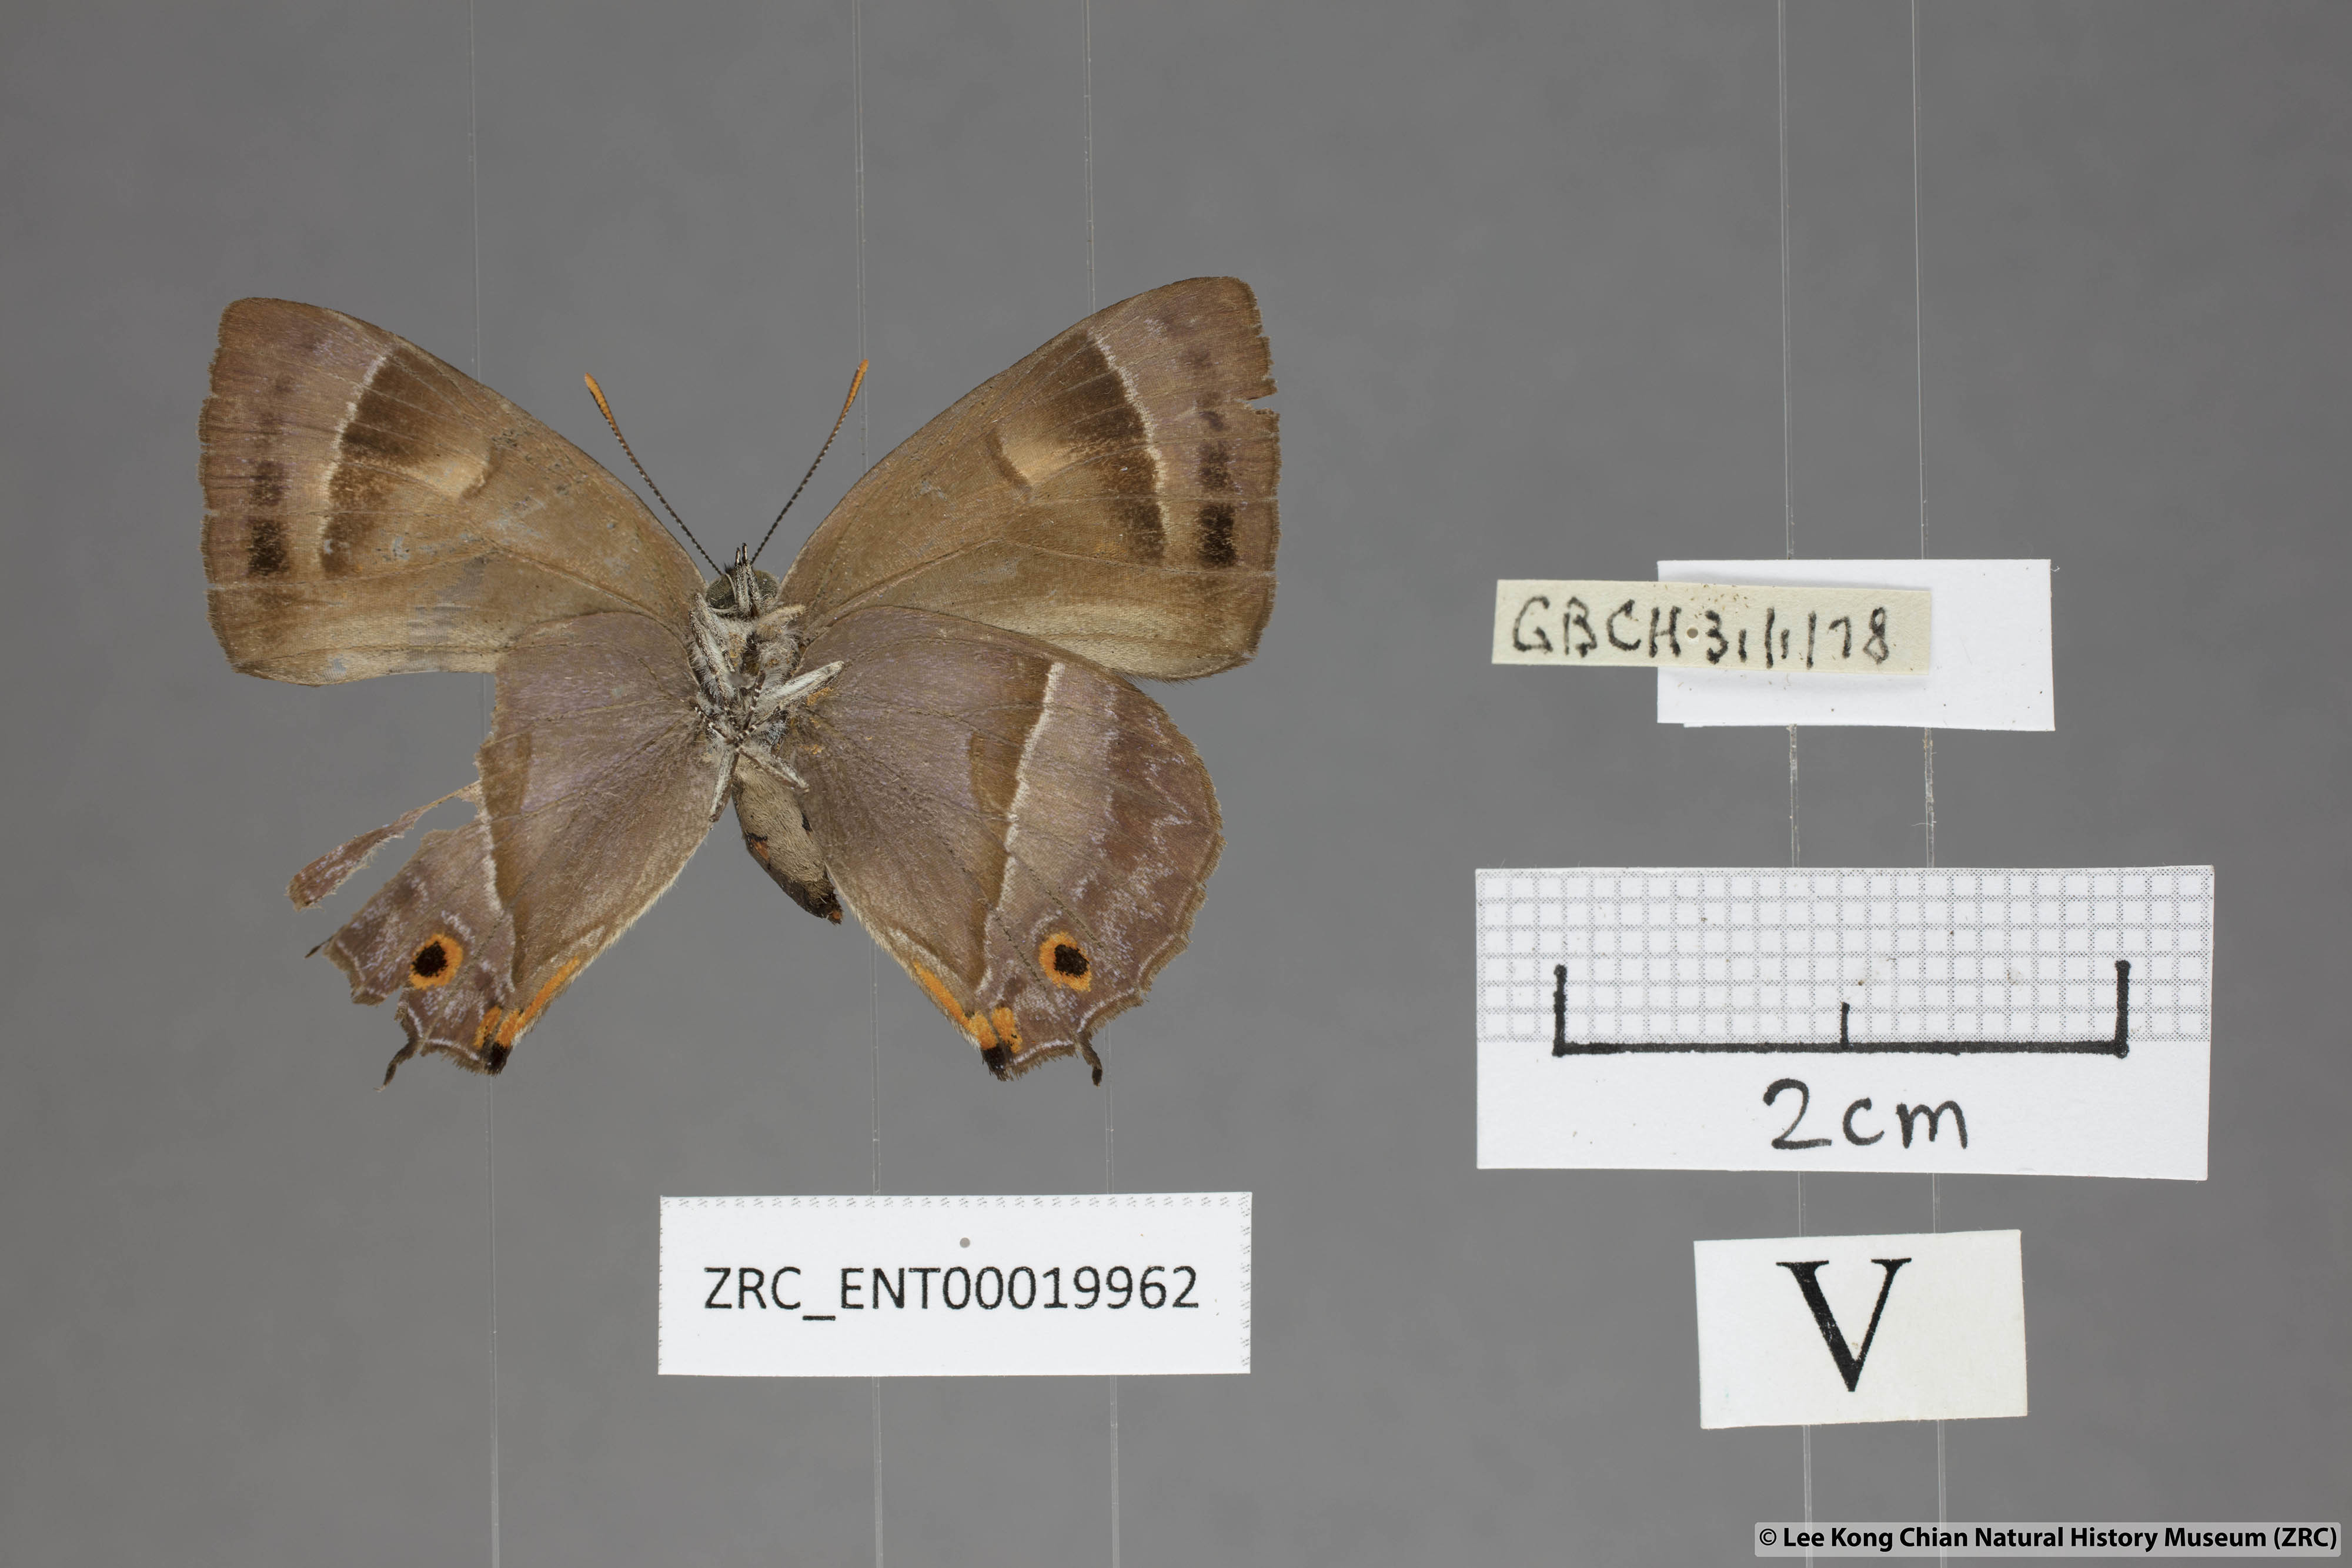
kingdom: Animalia
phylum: Arthropoda
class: Insecta
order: Lepidoptera
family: Lycaenidae
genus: Austrozephyrus
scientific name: Austrozephyrus absolon
